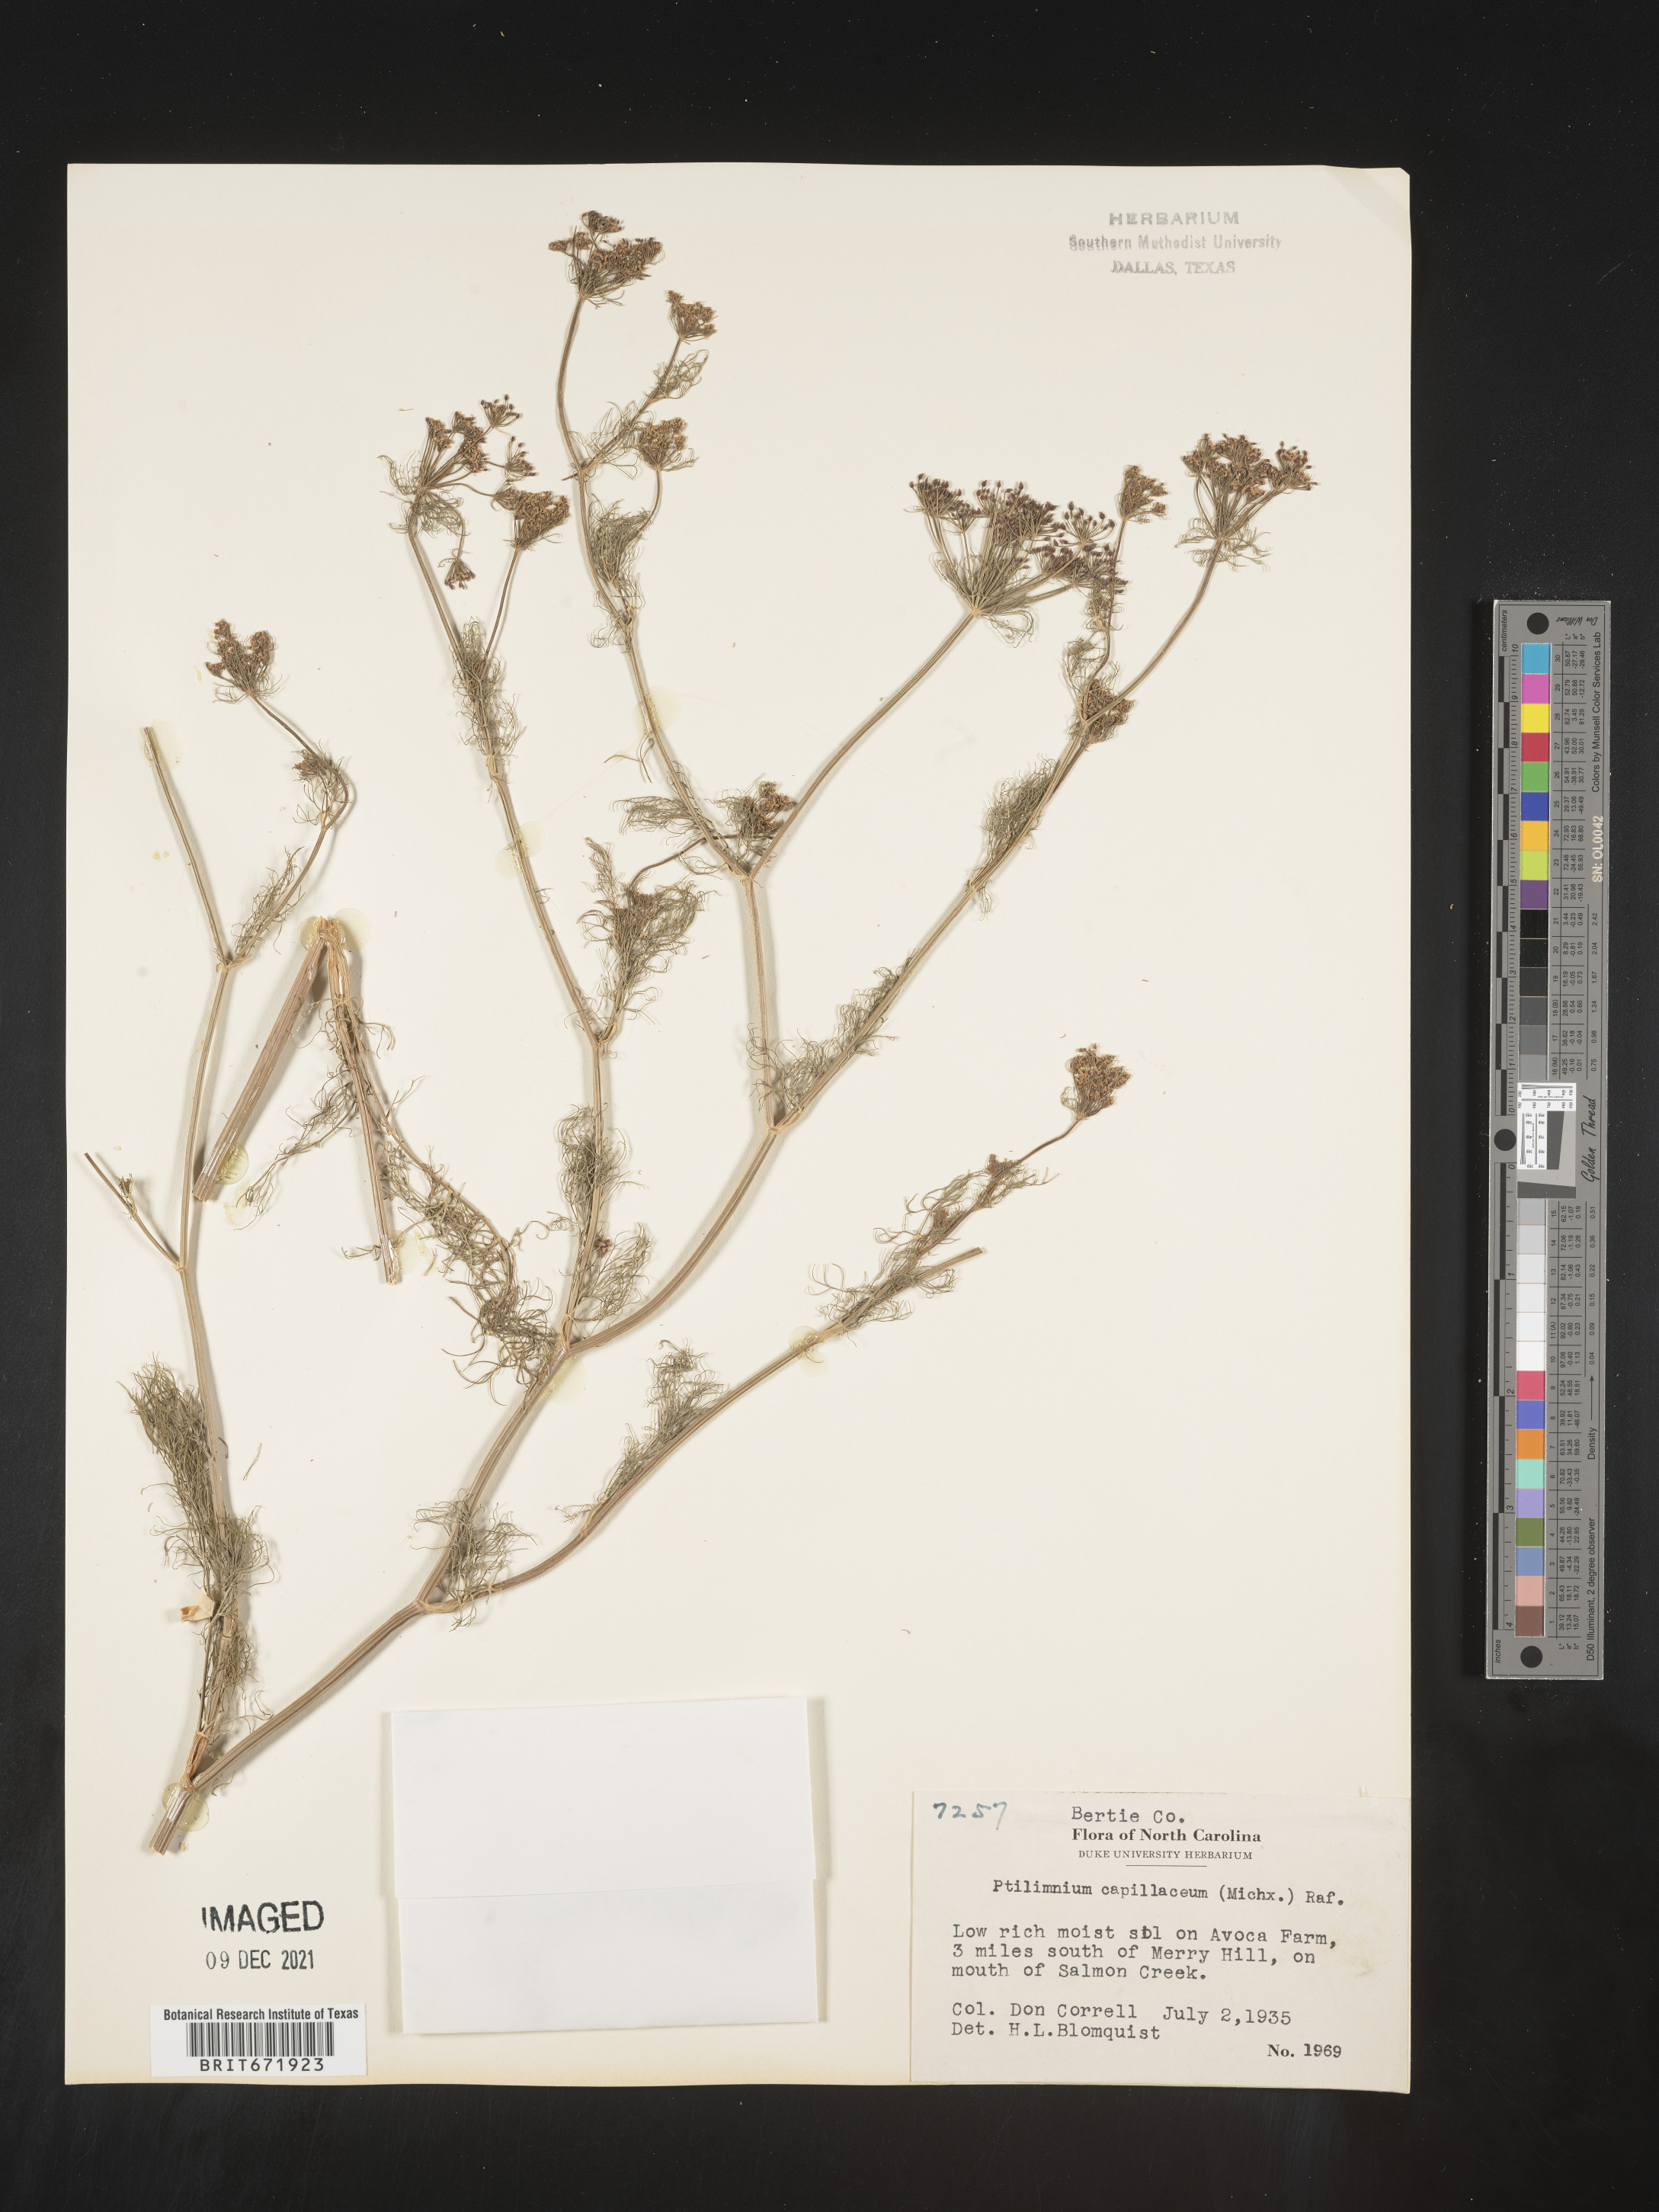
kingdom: Plantae
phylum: Tracheophyta
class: Magnoliopsida
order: Apiales
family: Apiaceae
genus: Ptilimnium
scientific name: Ptilimnium capillaceum
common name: Herbwilliam
